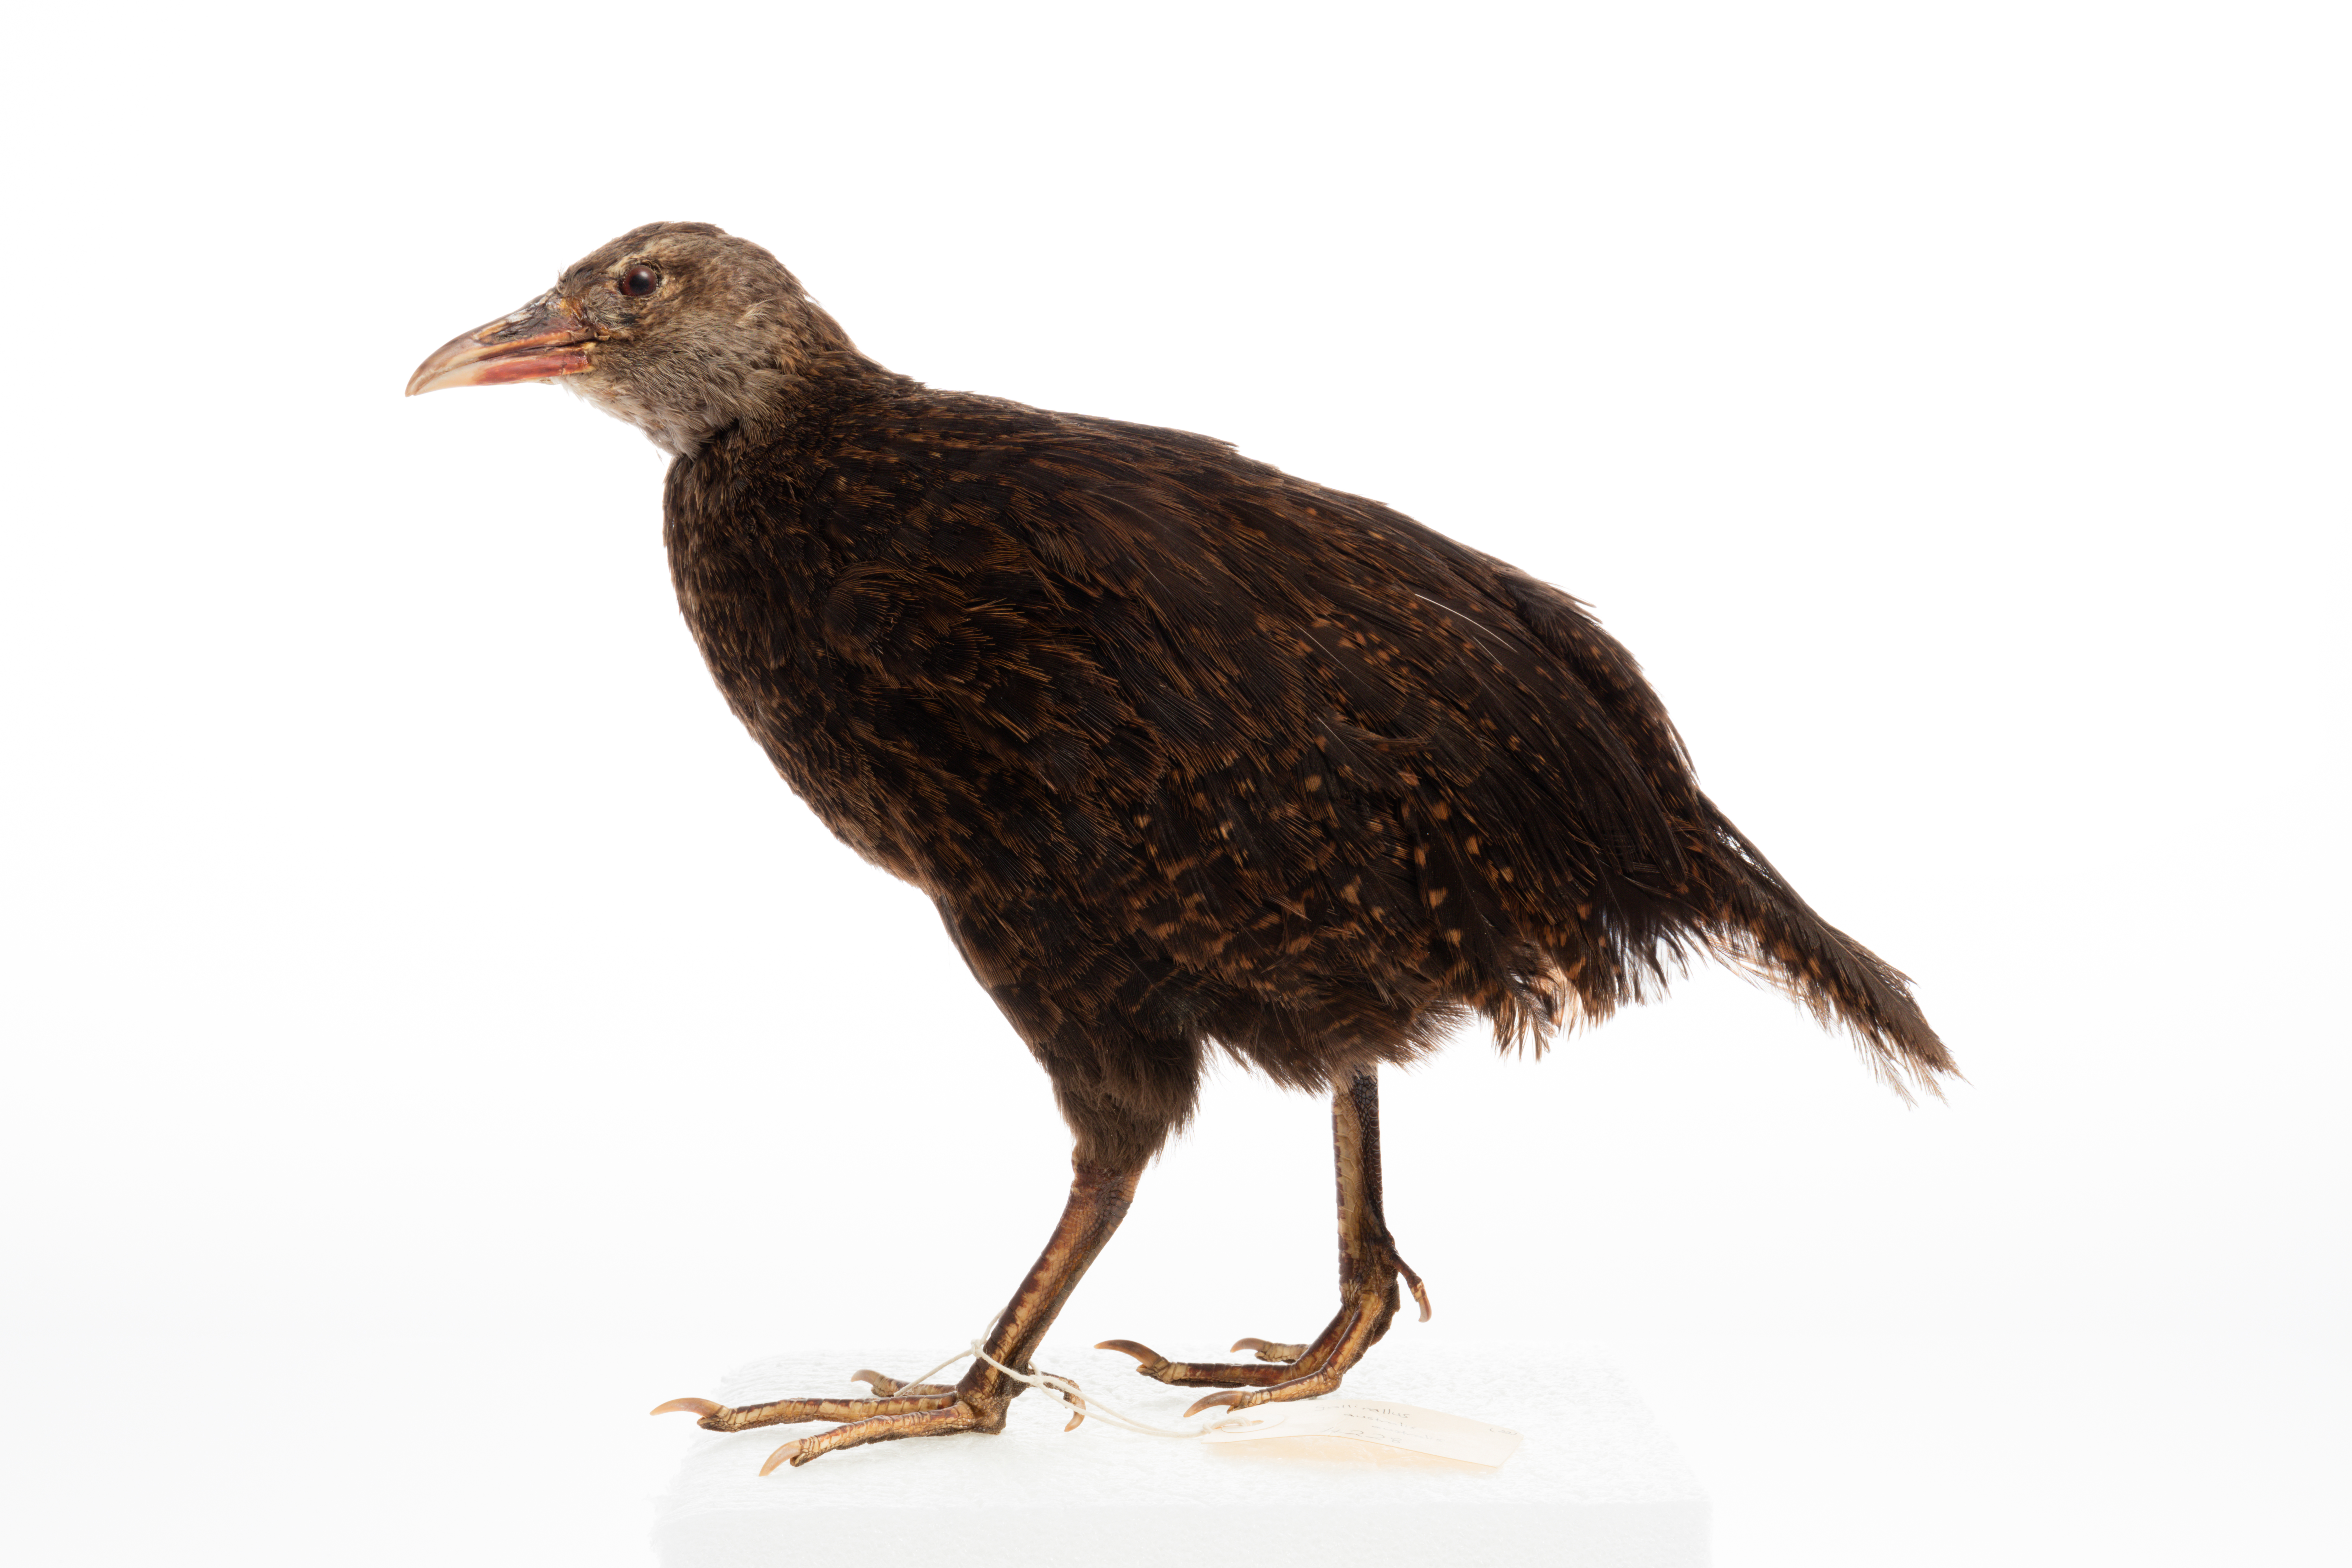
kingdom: Animalia
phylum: Chordata
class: Aves
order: Gruiformes
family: Rallidae
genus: Gallirallus
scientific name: Gallirallus australis
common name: Weka
